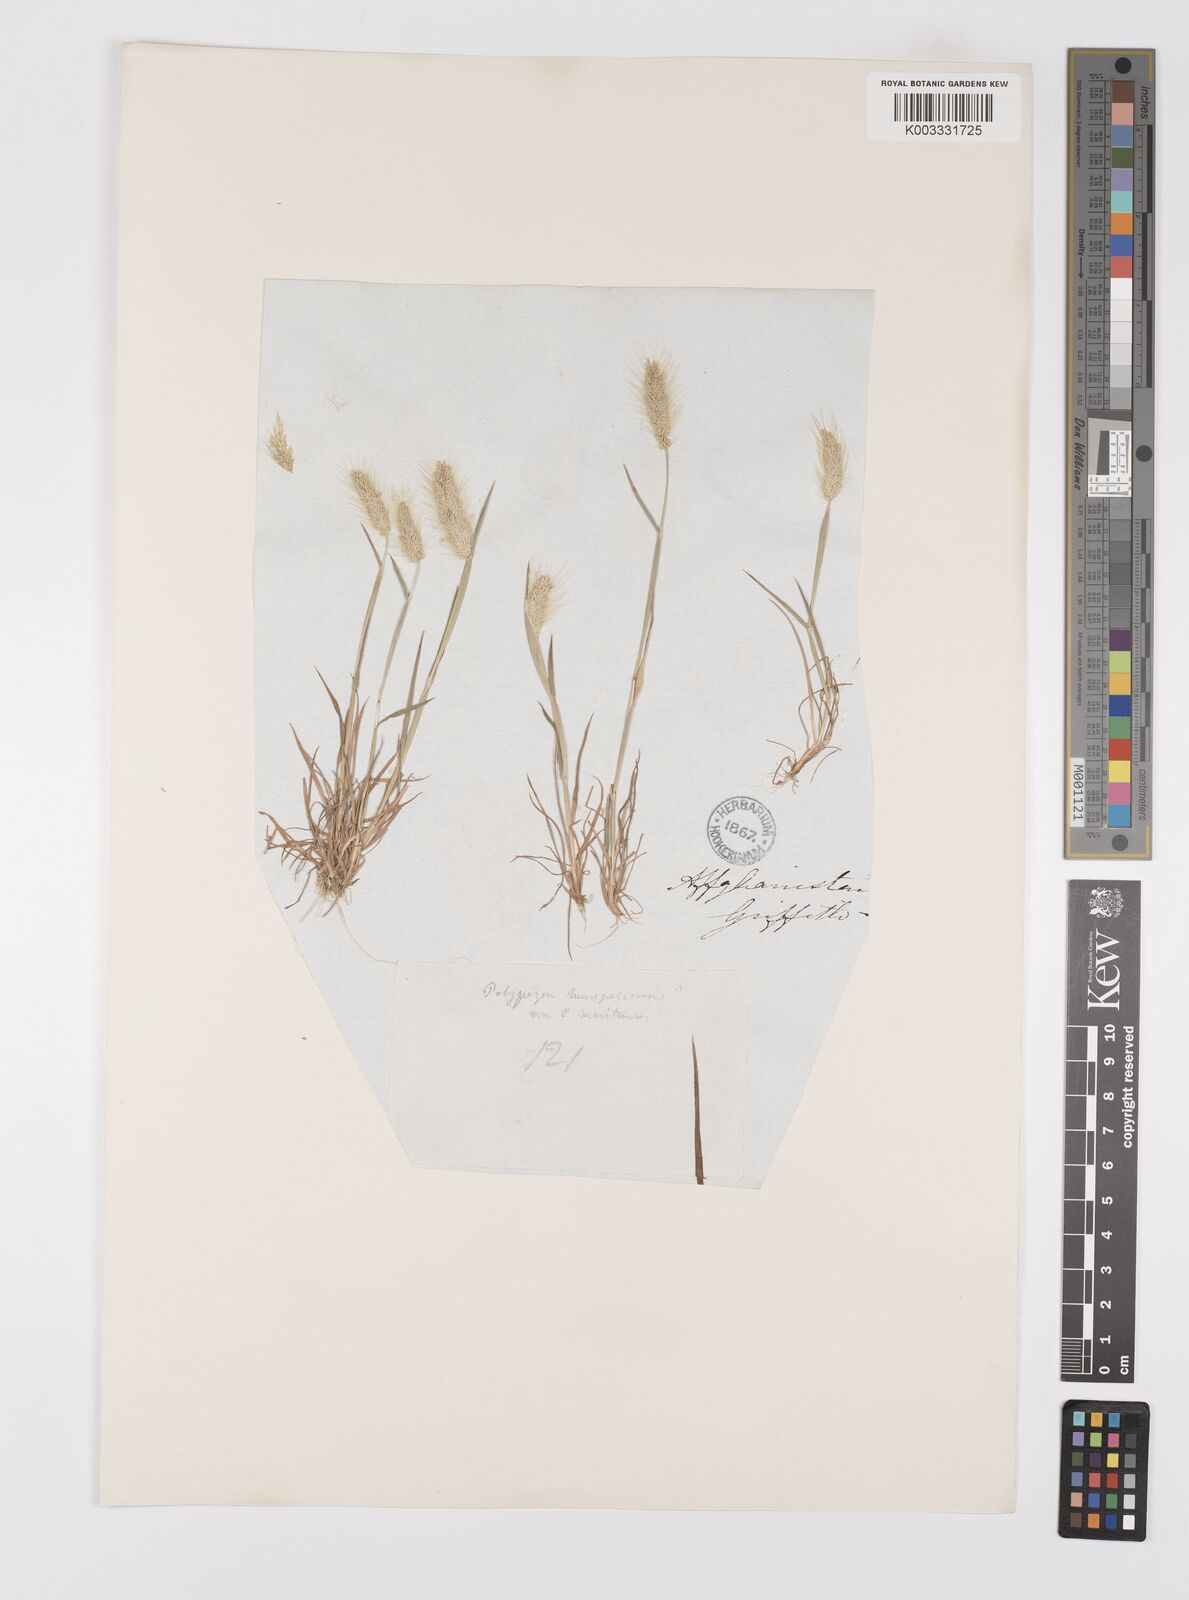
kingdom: Plantae
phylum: Tracheophyta
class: Liliopsida
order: Poales
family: Poaceae
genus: Polypogon
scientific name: Polypogon monspeliensis
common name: Annual rabbitsfoot grass
